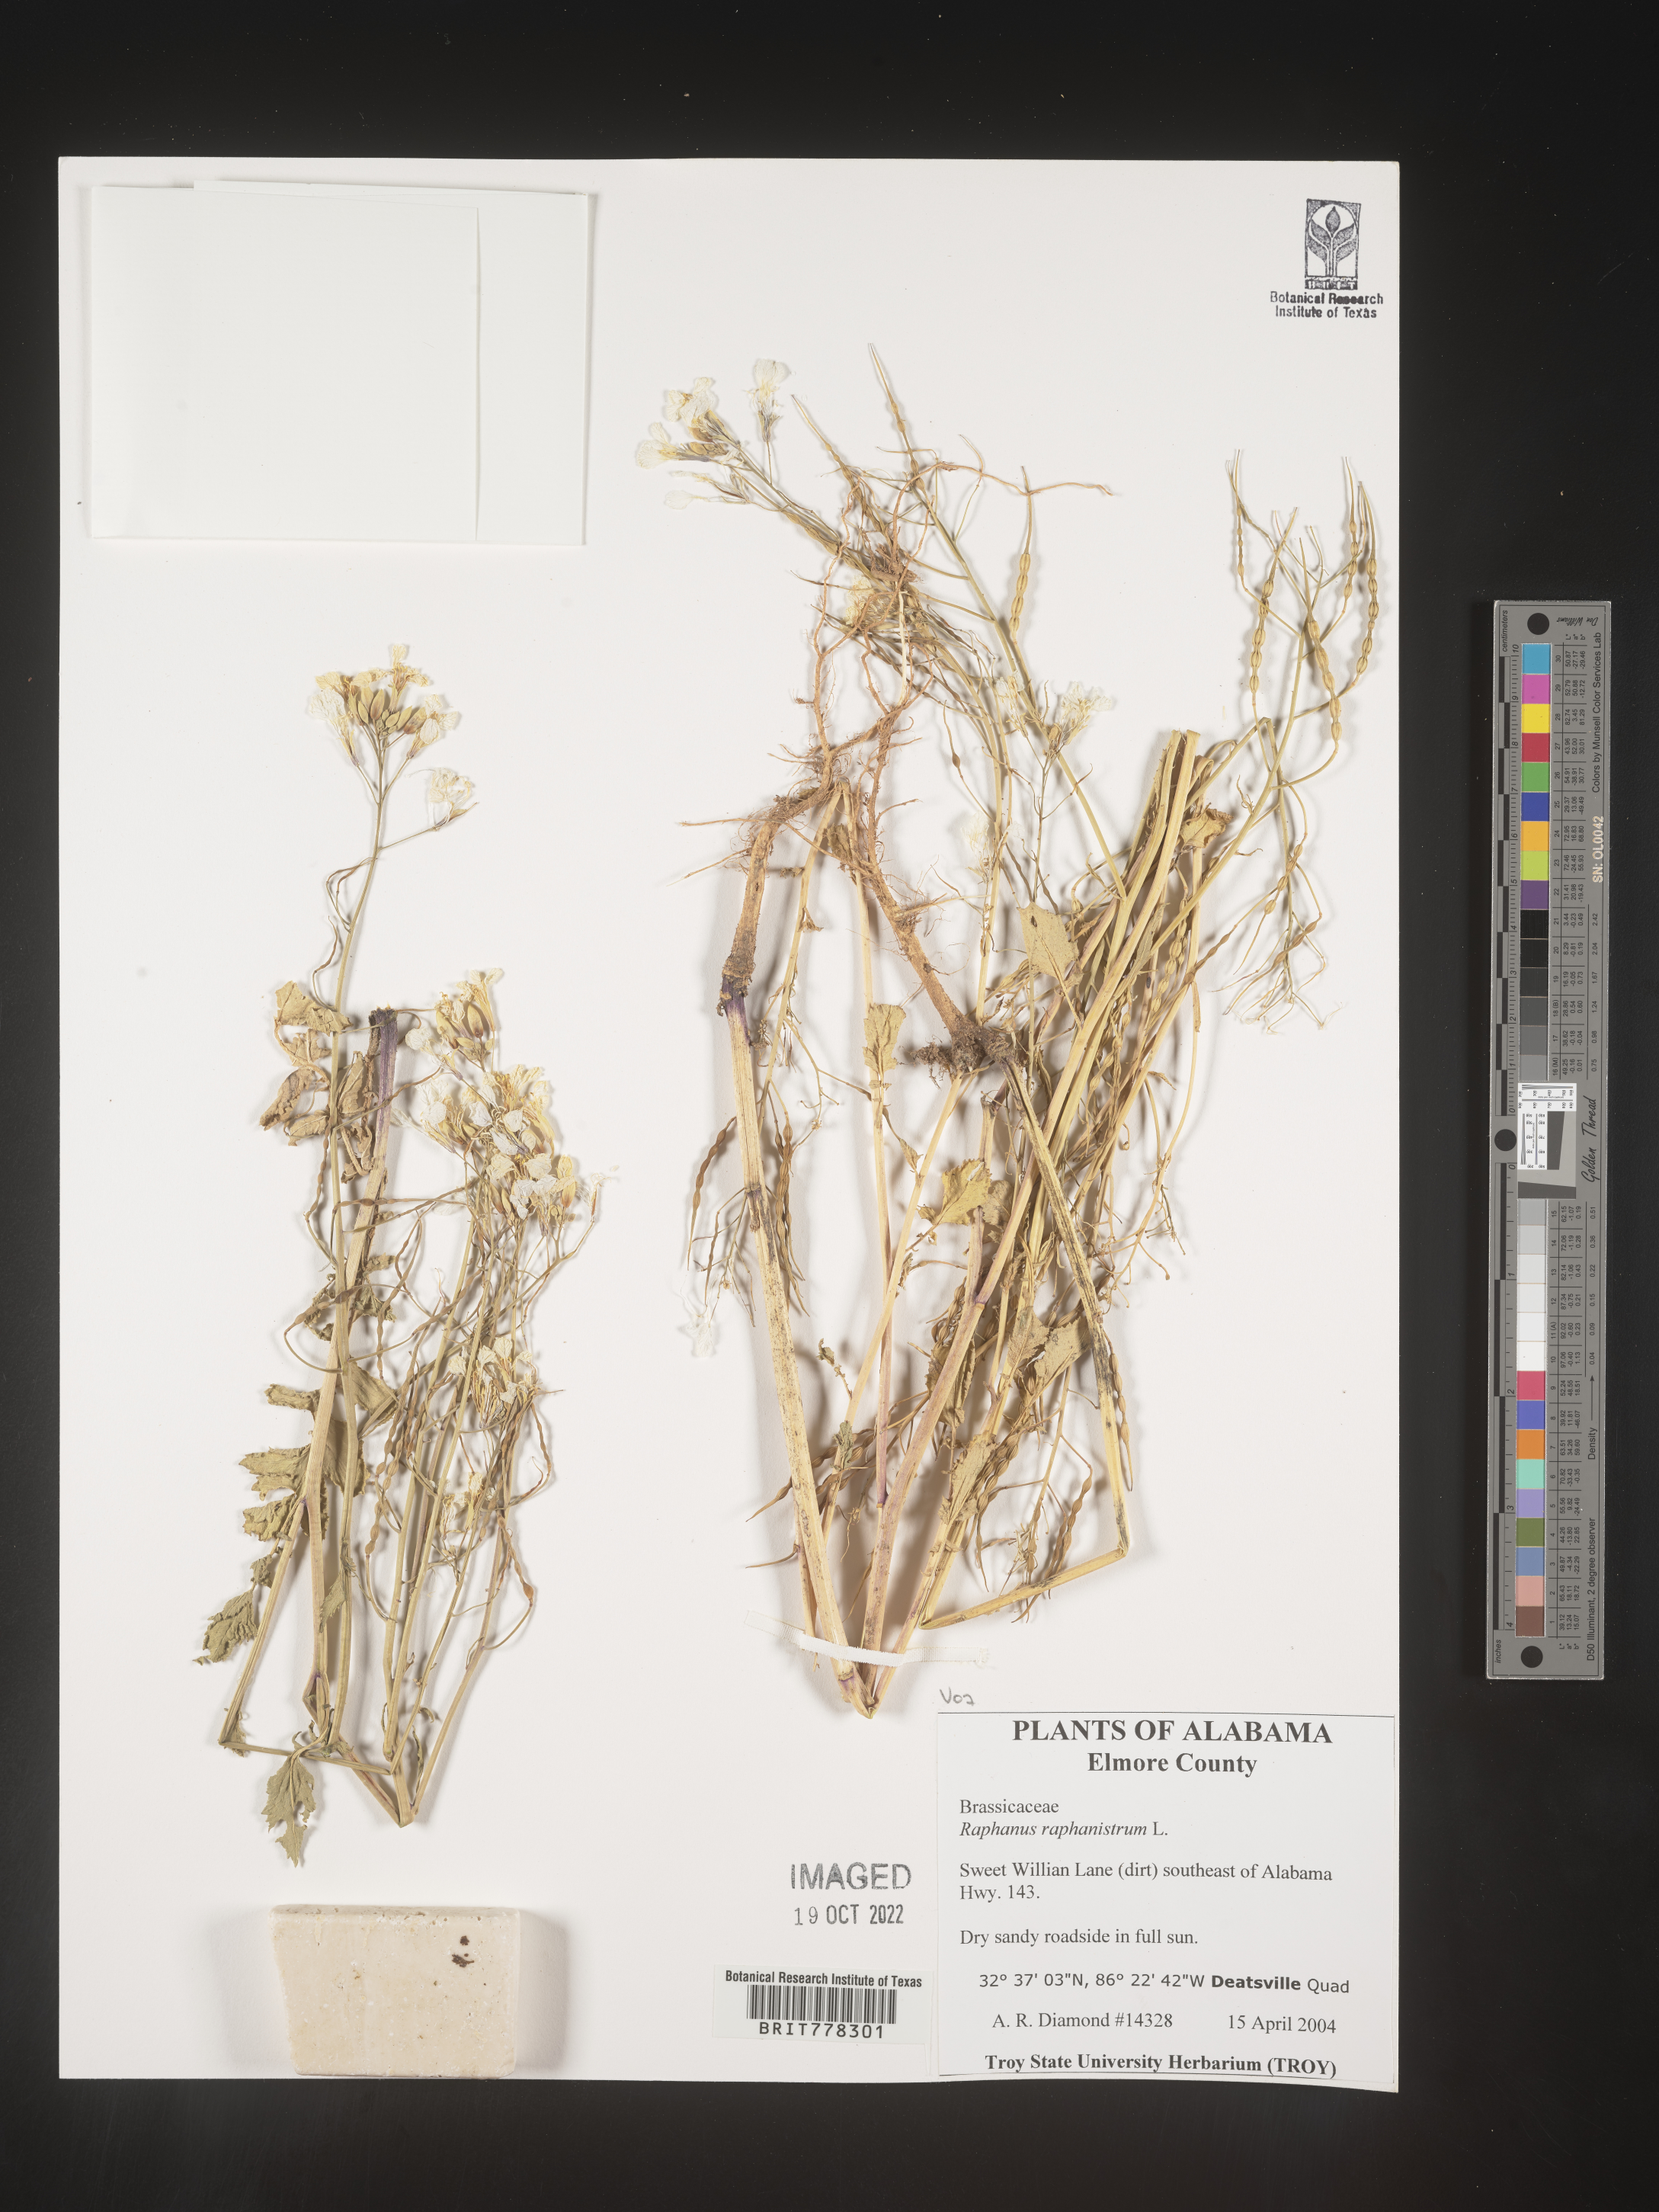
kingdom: Plantae
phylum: Tracheophyta
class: Magnoliopsida
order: Brassicales
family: Brassicaceae
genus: Raphanus
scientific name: Raphanus raphanistrum
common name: Wild radish
